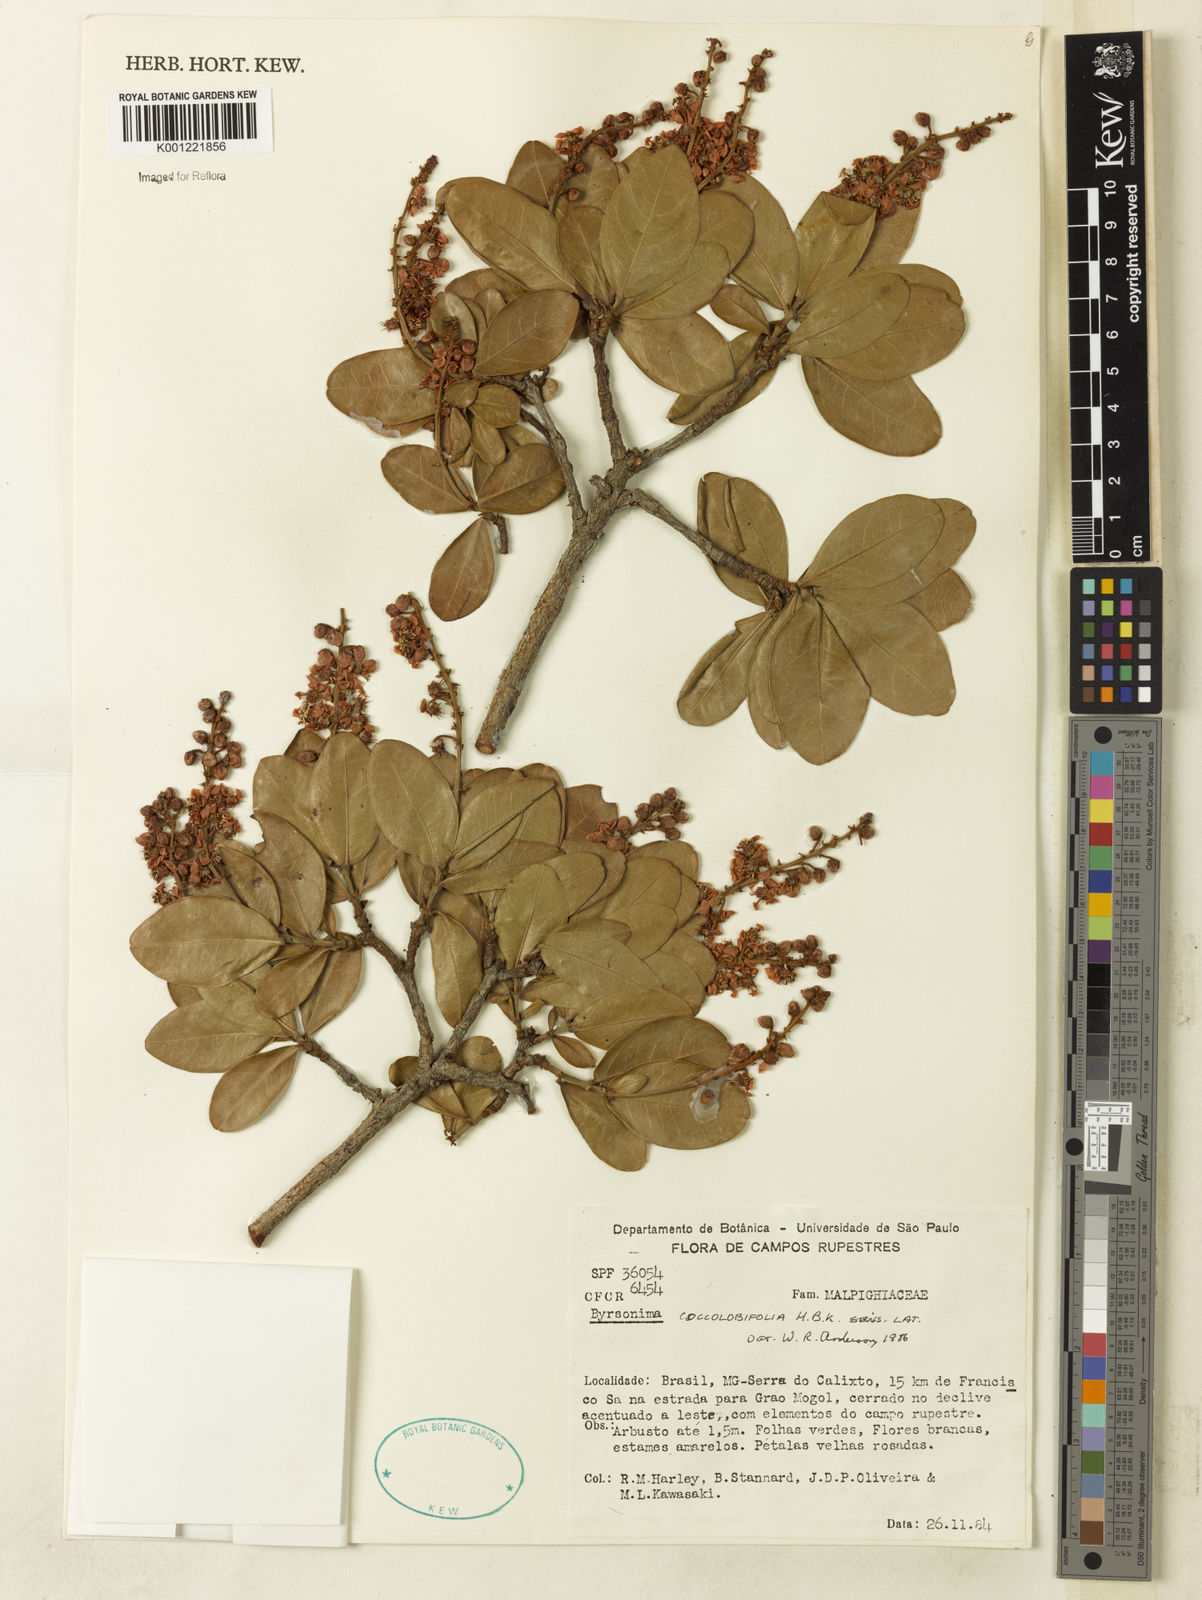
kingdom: Plantae
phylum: Tracheophyta
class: Magnoliopsida
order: Malpighiales
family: Malpighiaceae
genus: Byrsonima
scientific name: Byrsonima coccolobifolia
